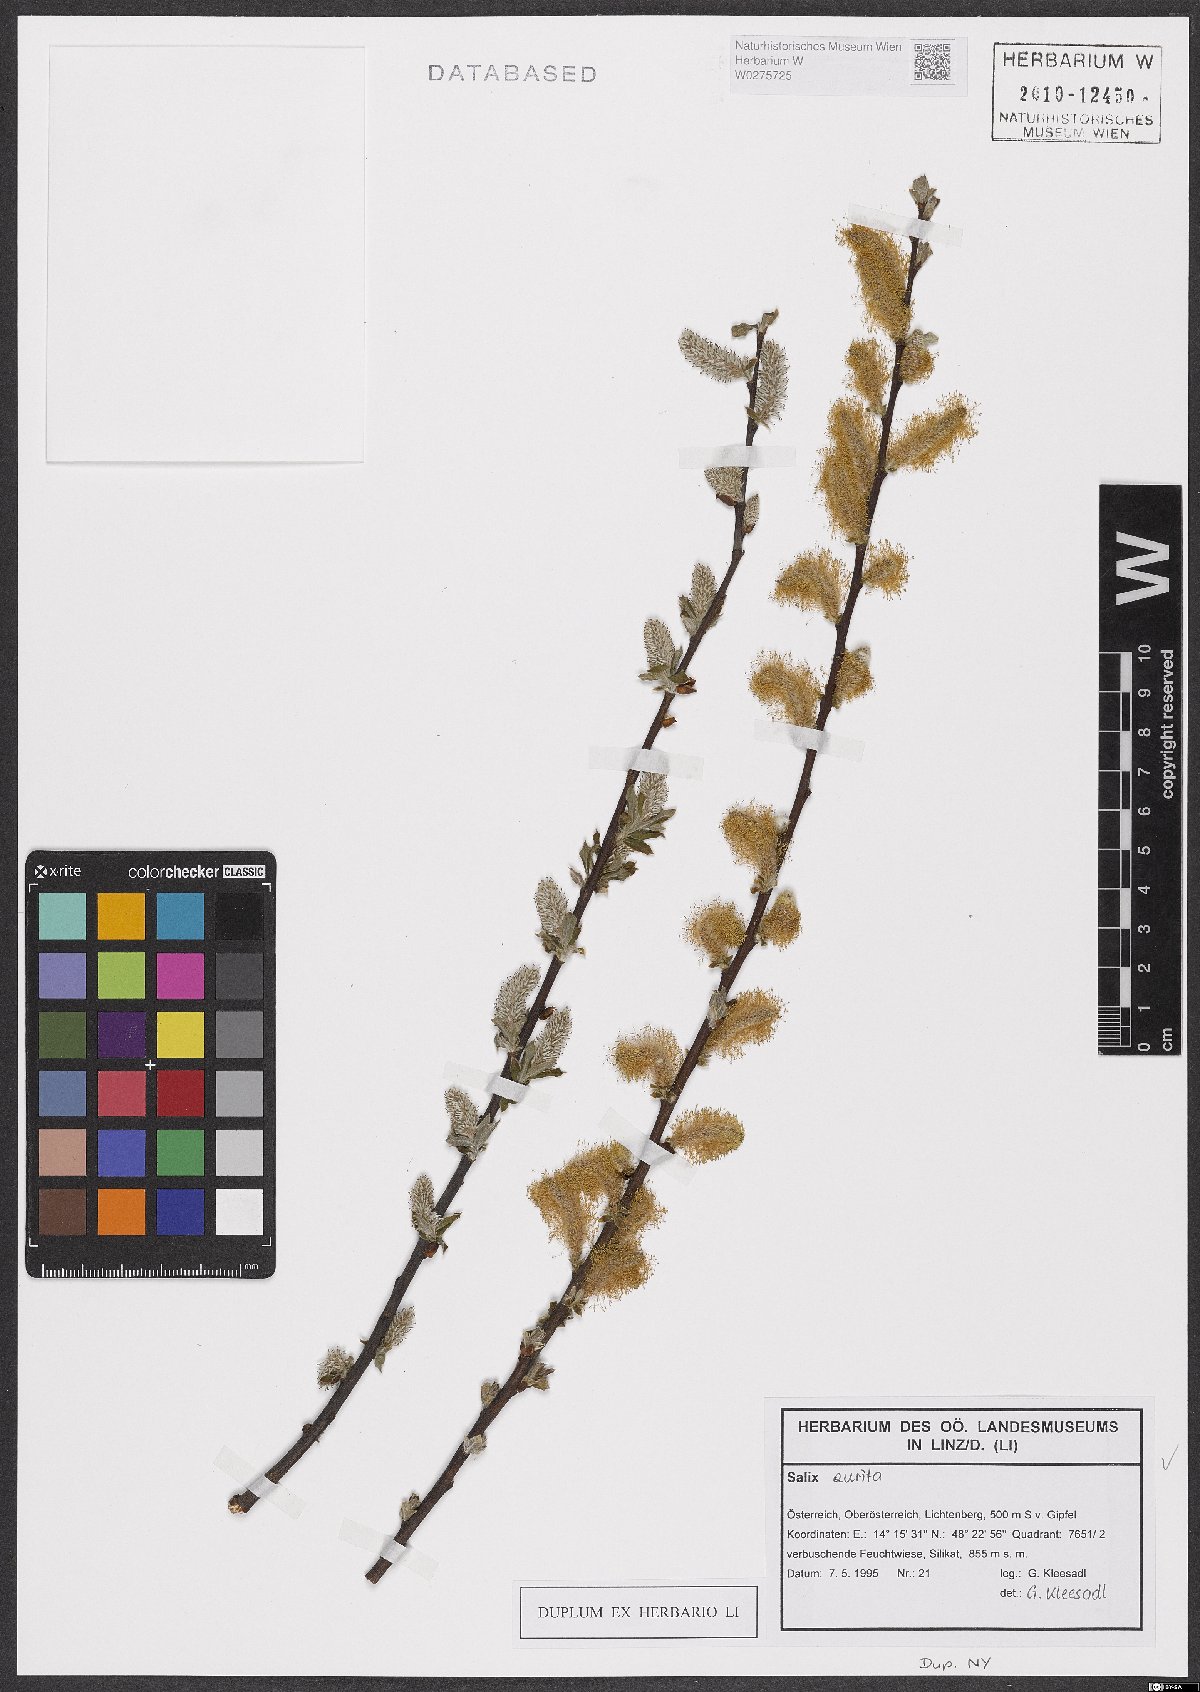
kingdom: Plantae
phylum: Tracheophyta
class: Magnoliopsida
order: Malpighiales
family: Salicaceae
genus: Salix
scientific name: Salix aurita
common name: Eared willow
